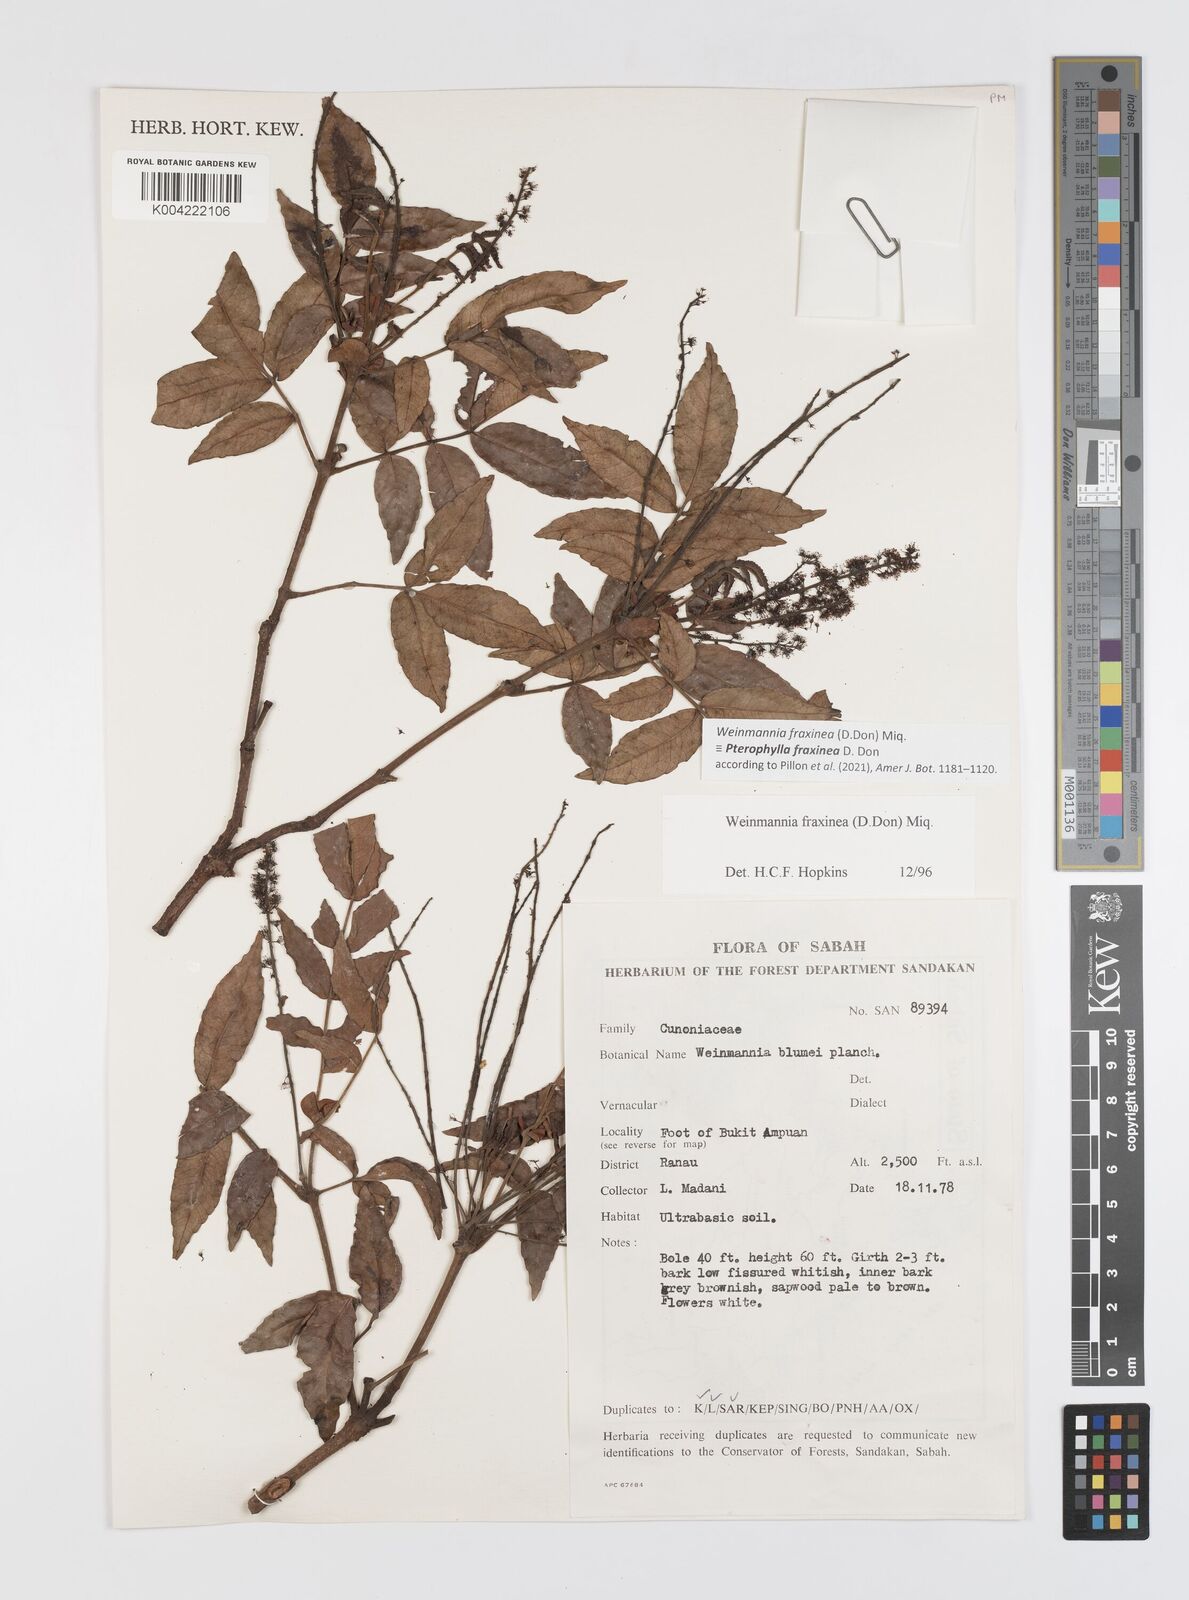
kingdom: Plantae
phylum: Tracheophyta
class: Magnoliopsida
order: Oxalidales
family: Cunoniaceae
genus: Pterophylla
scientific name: Pterophylla fraxinea
